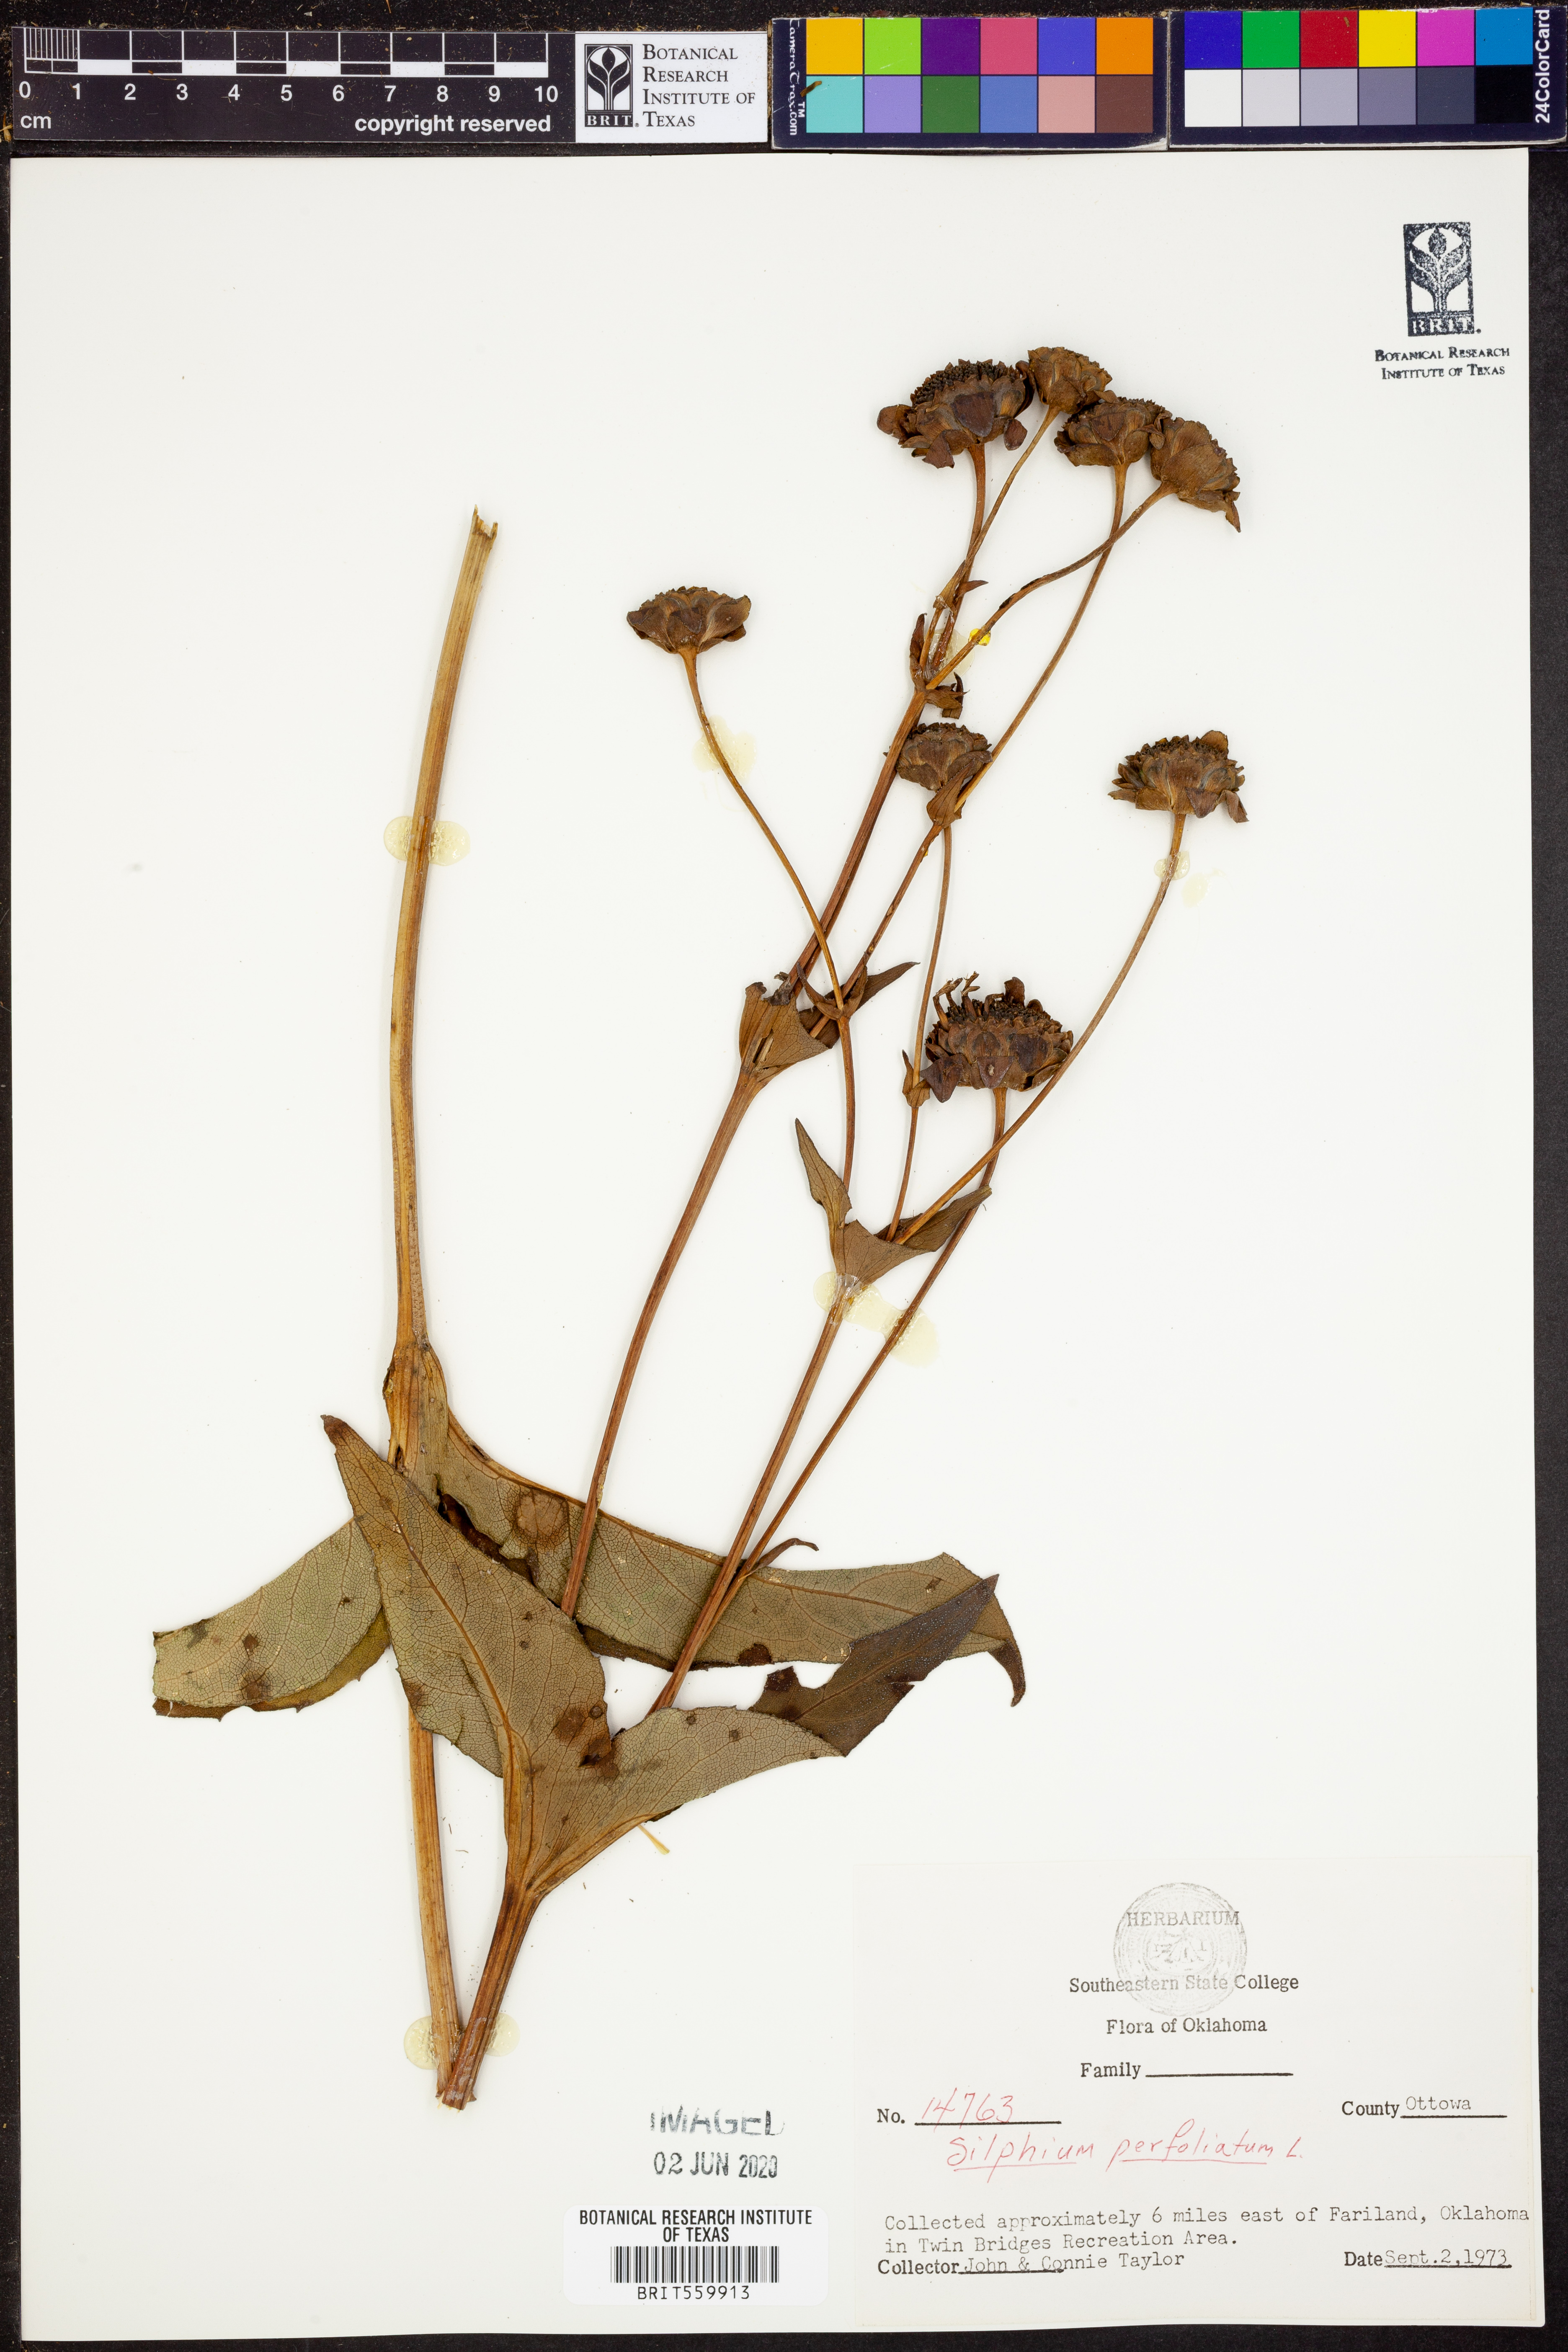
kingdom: Plantae
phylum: Tracheophyta
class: Magnoliopsida
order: Asterales
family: Asteraceae
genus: Silphium
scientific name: Silphium perfoliatum
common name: Cup-plant
